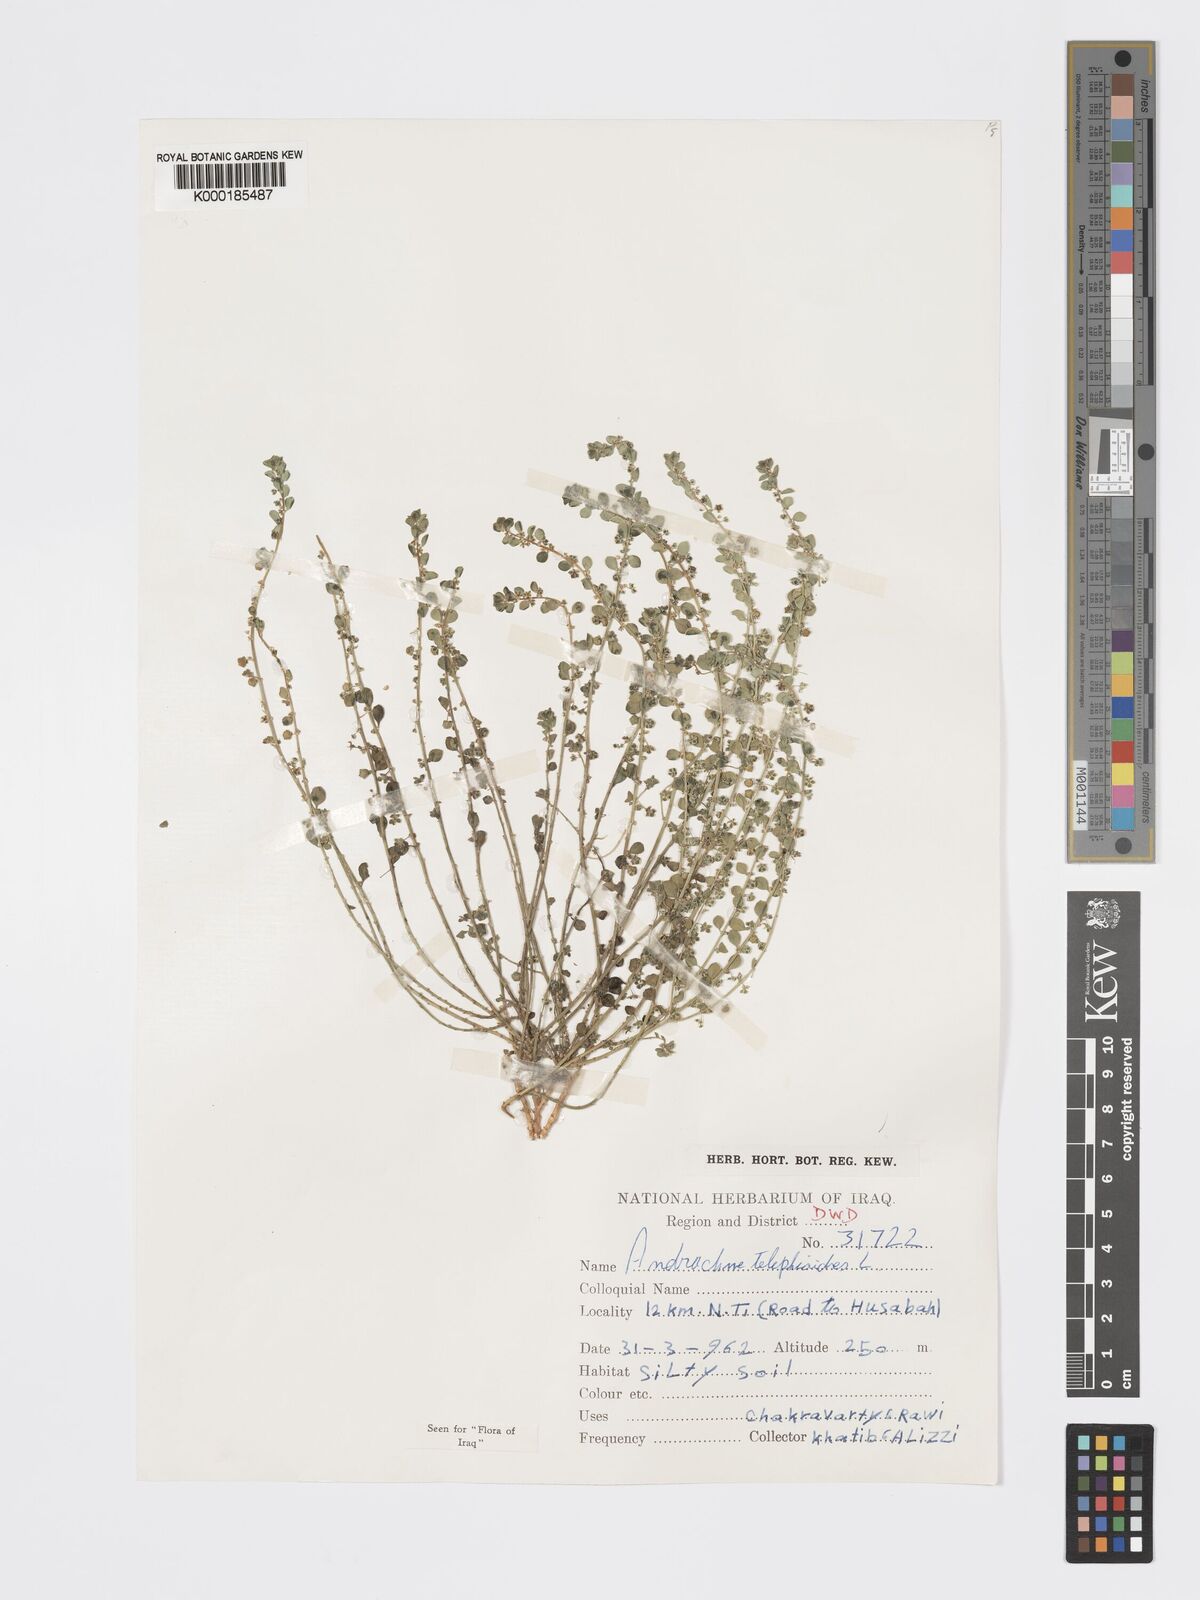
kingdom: Plantae
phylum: Tracheophyta
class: Magnoliopsida
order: Malpighiales
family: Phyllanthaceae
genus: Andrachne
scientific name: Andrachne telephioides
